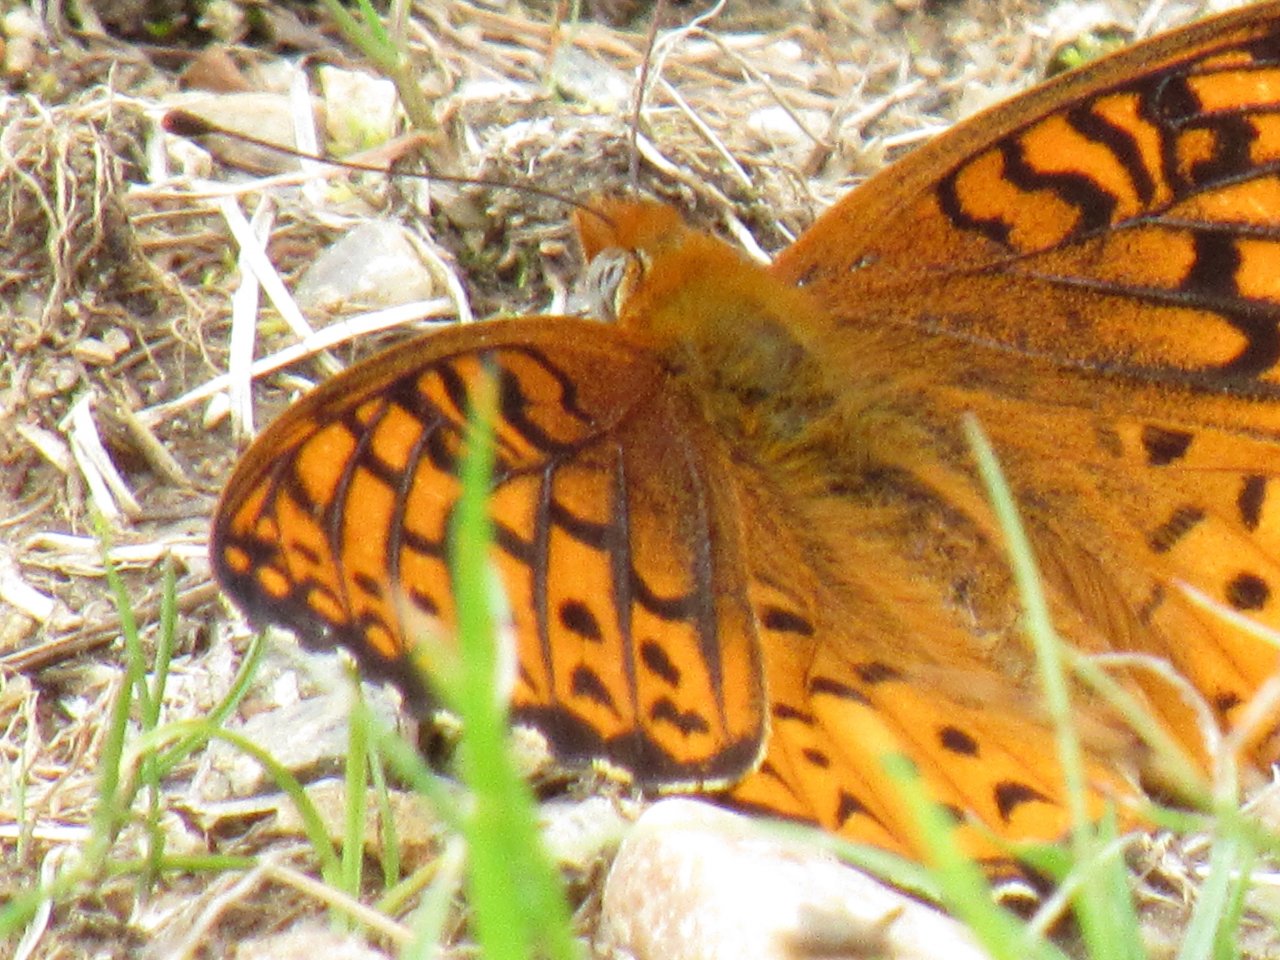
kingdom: Animalia
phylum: Arthropoda
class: Insecta
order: Lepidoptera
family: Nymphalidae
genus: Speyeria
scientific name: Speyeria atlantis
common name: Atlantis Fritillary
